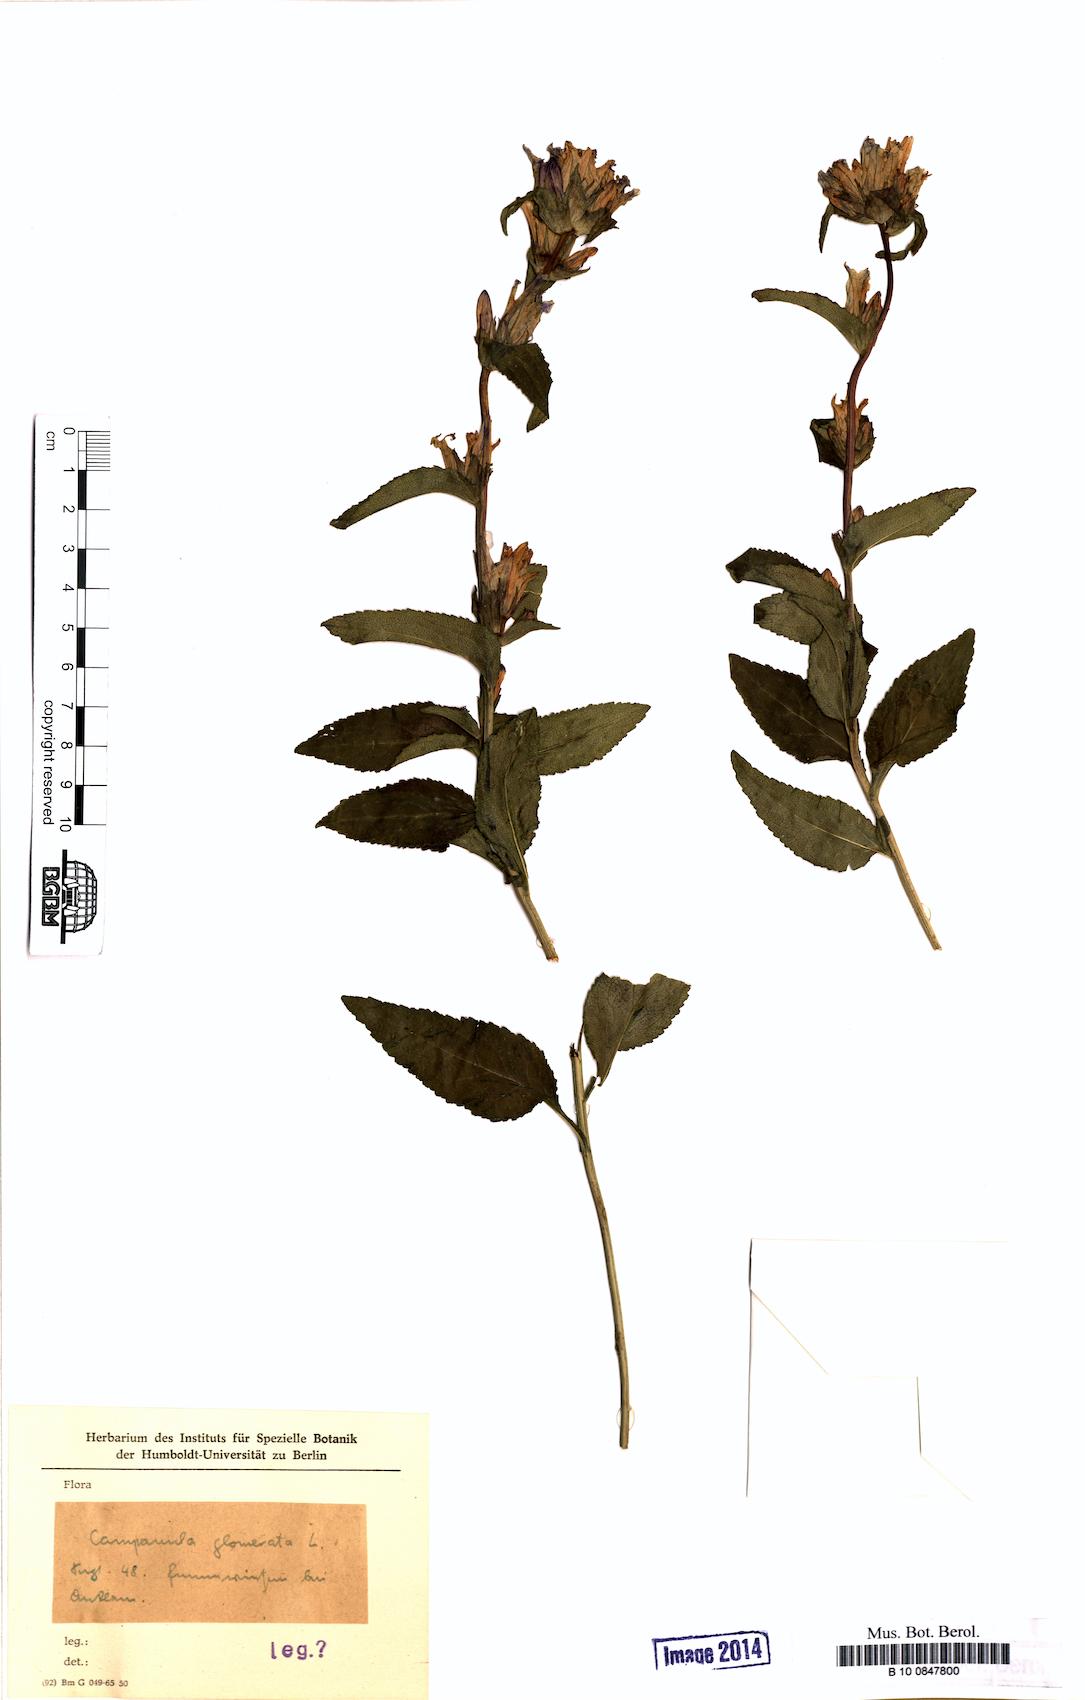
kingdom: Plantae
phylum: Tracheophyta
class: Magnoliopsida
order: Asterales
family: Campanulaceae
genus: Campanula
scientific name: Campanula glomerata
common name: Clustered bellflower
